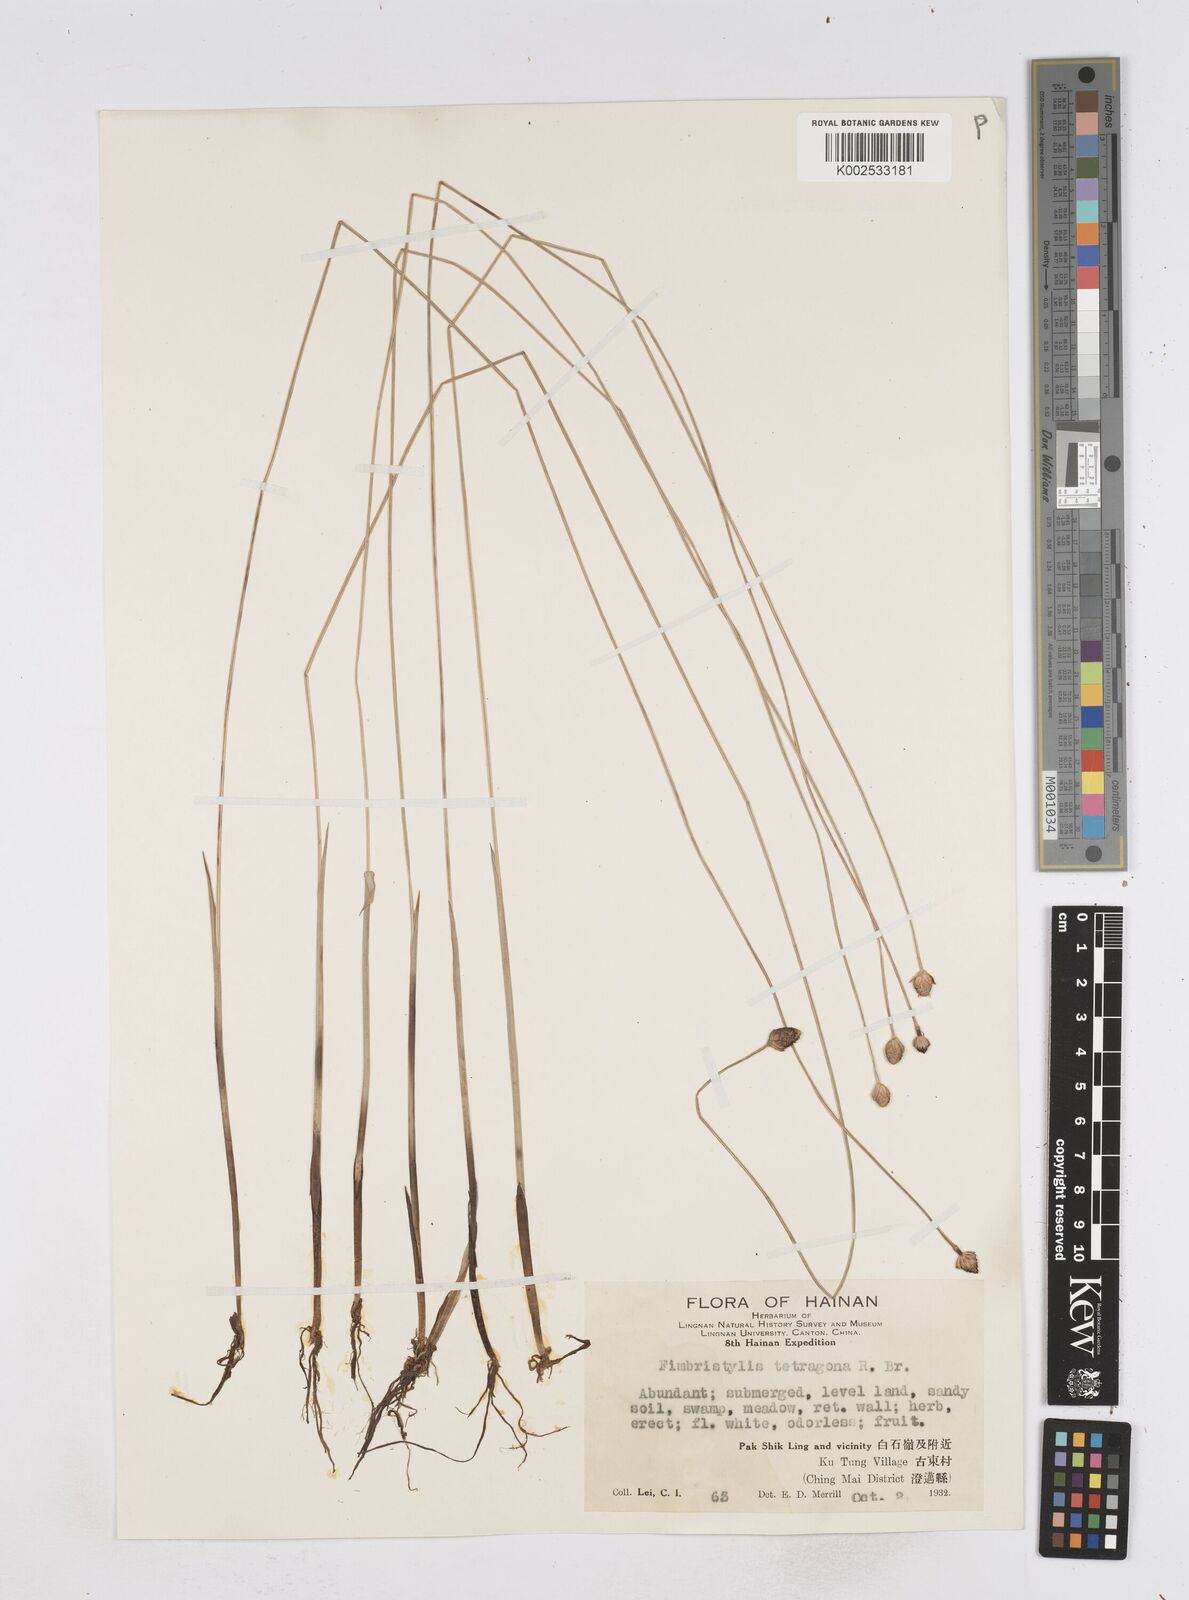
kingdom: Plantae
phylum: Tracheophyta
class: Liliopsida
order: Poales
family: Cyperaceae
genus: Fimbristylis
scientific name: Fimbristylis tetragona
